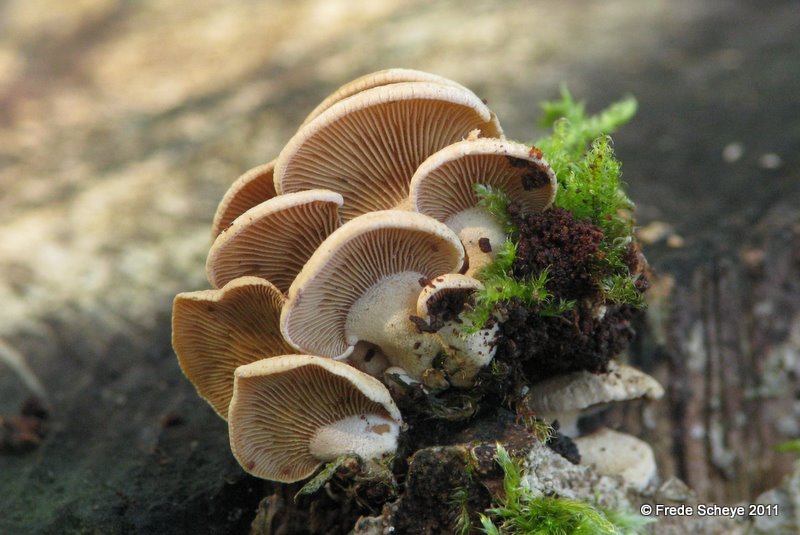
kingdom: Fungi
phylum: Basidiomycota
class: Agaricomycetes
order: Agaricales
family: Mycenaceae
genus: Panellus
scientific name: Panellus stipticus
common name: kliddet epaulethat
